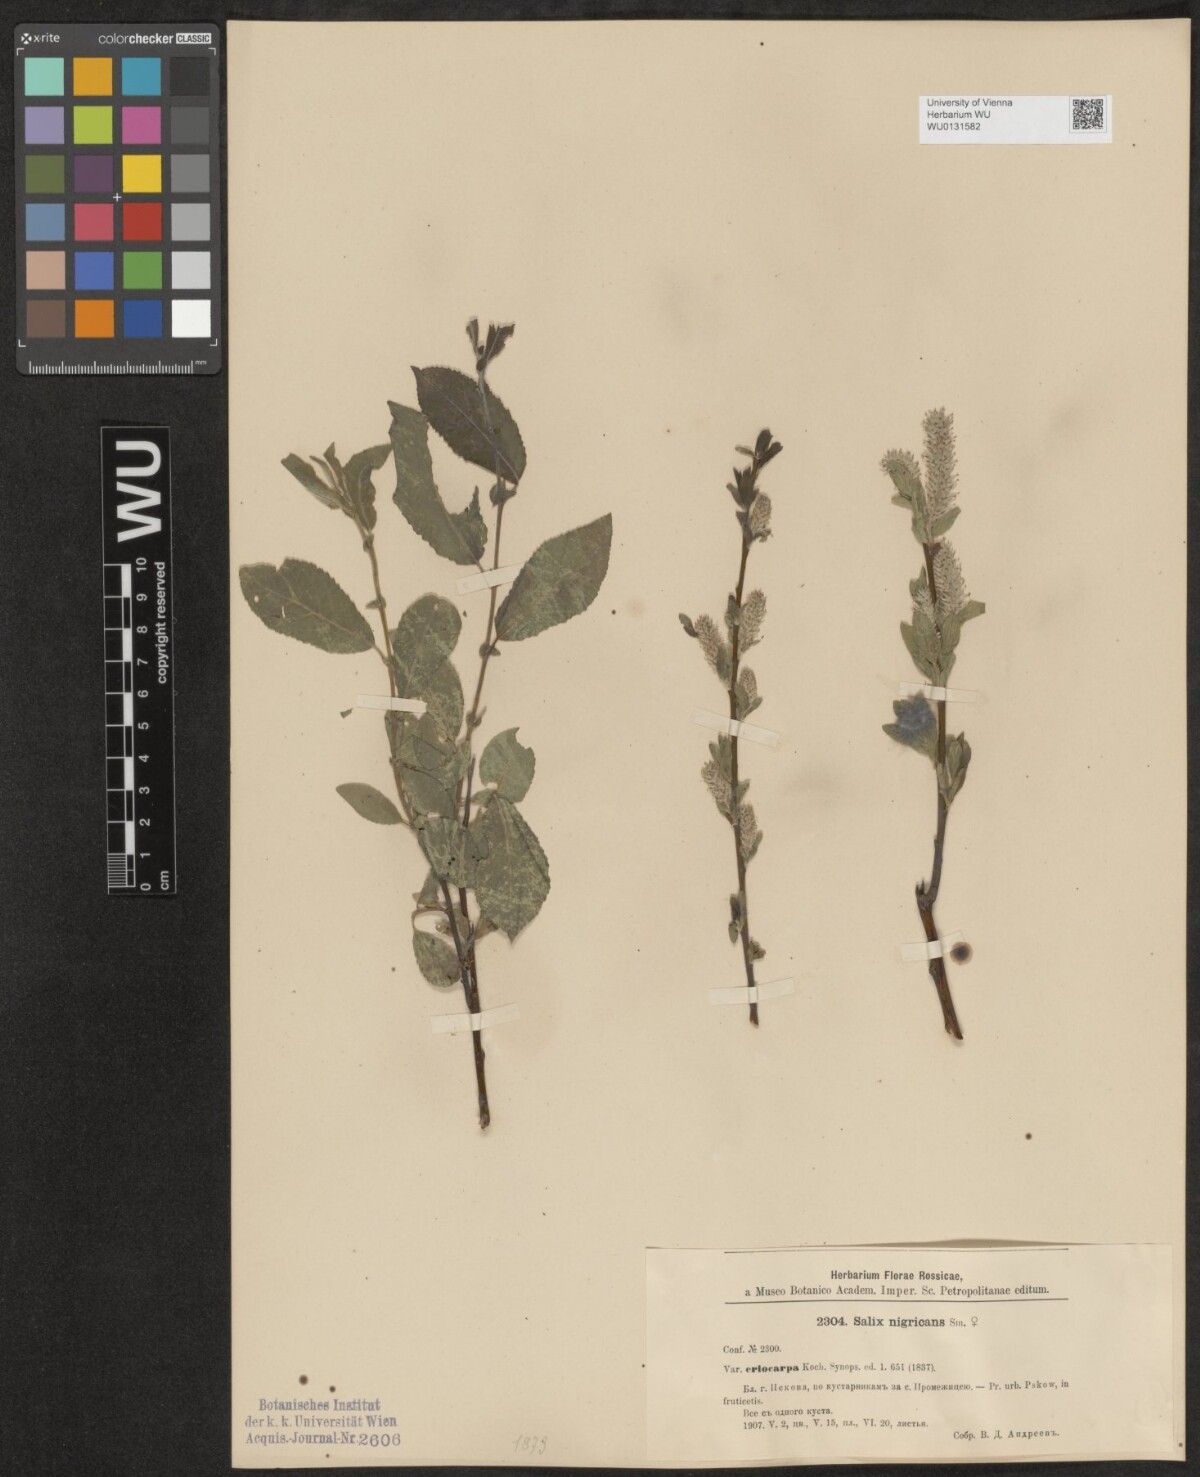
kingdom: Plantae
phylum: Tracheophyta
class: Magnoliopsida
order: Malpighiales
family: Salicaceae
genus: Salix
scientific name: Salix myrsinifolia
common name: Dark-leaved willow
